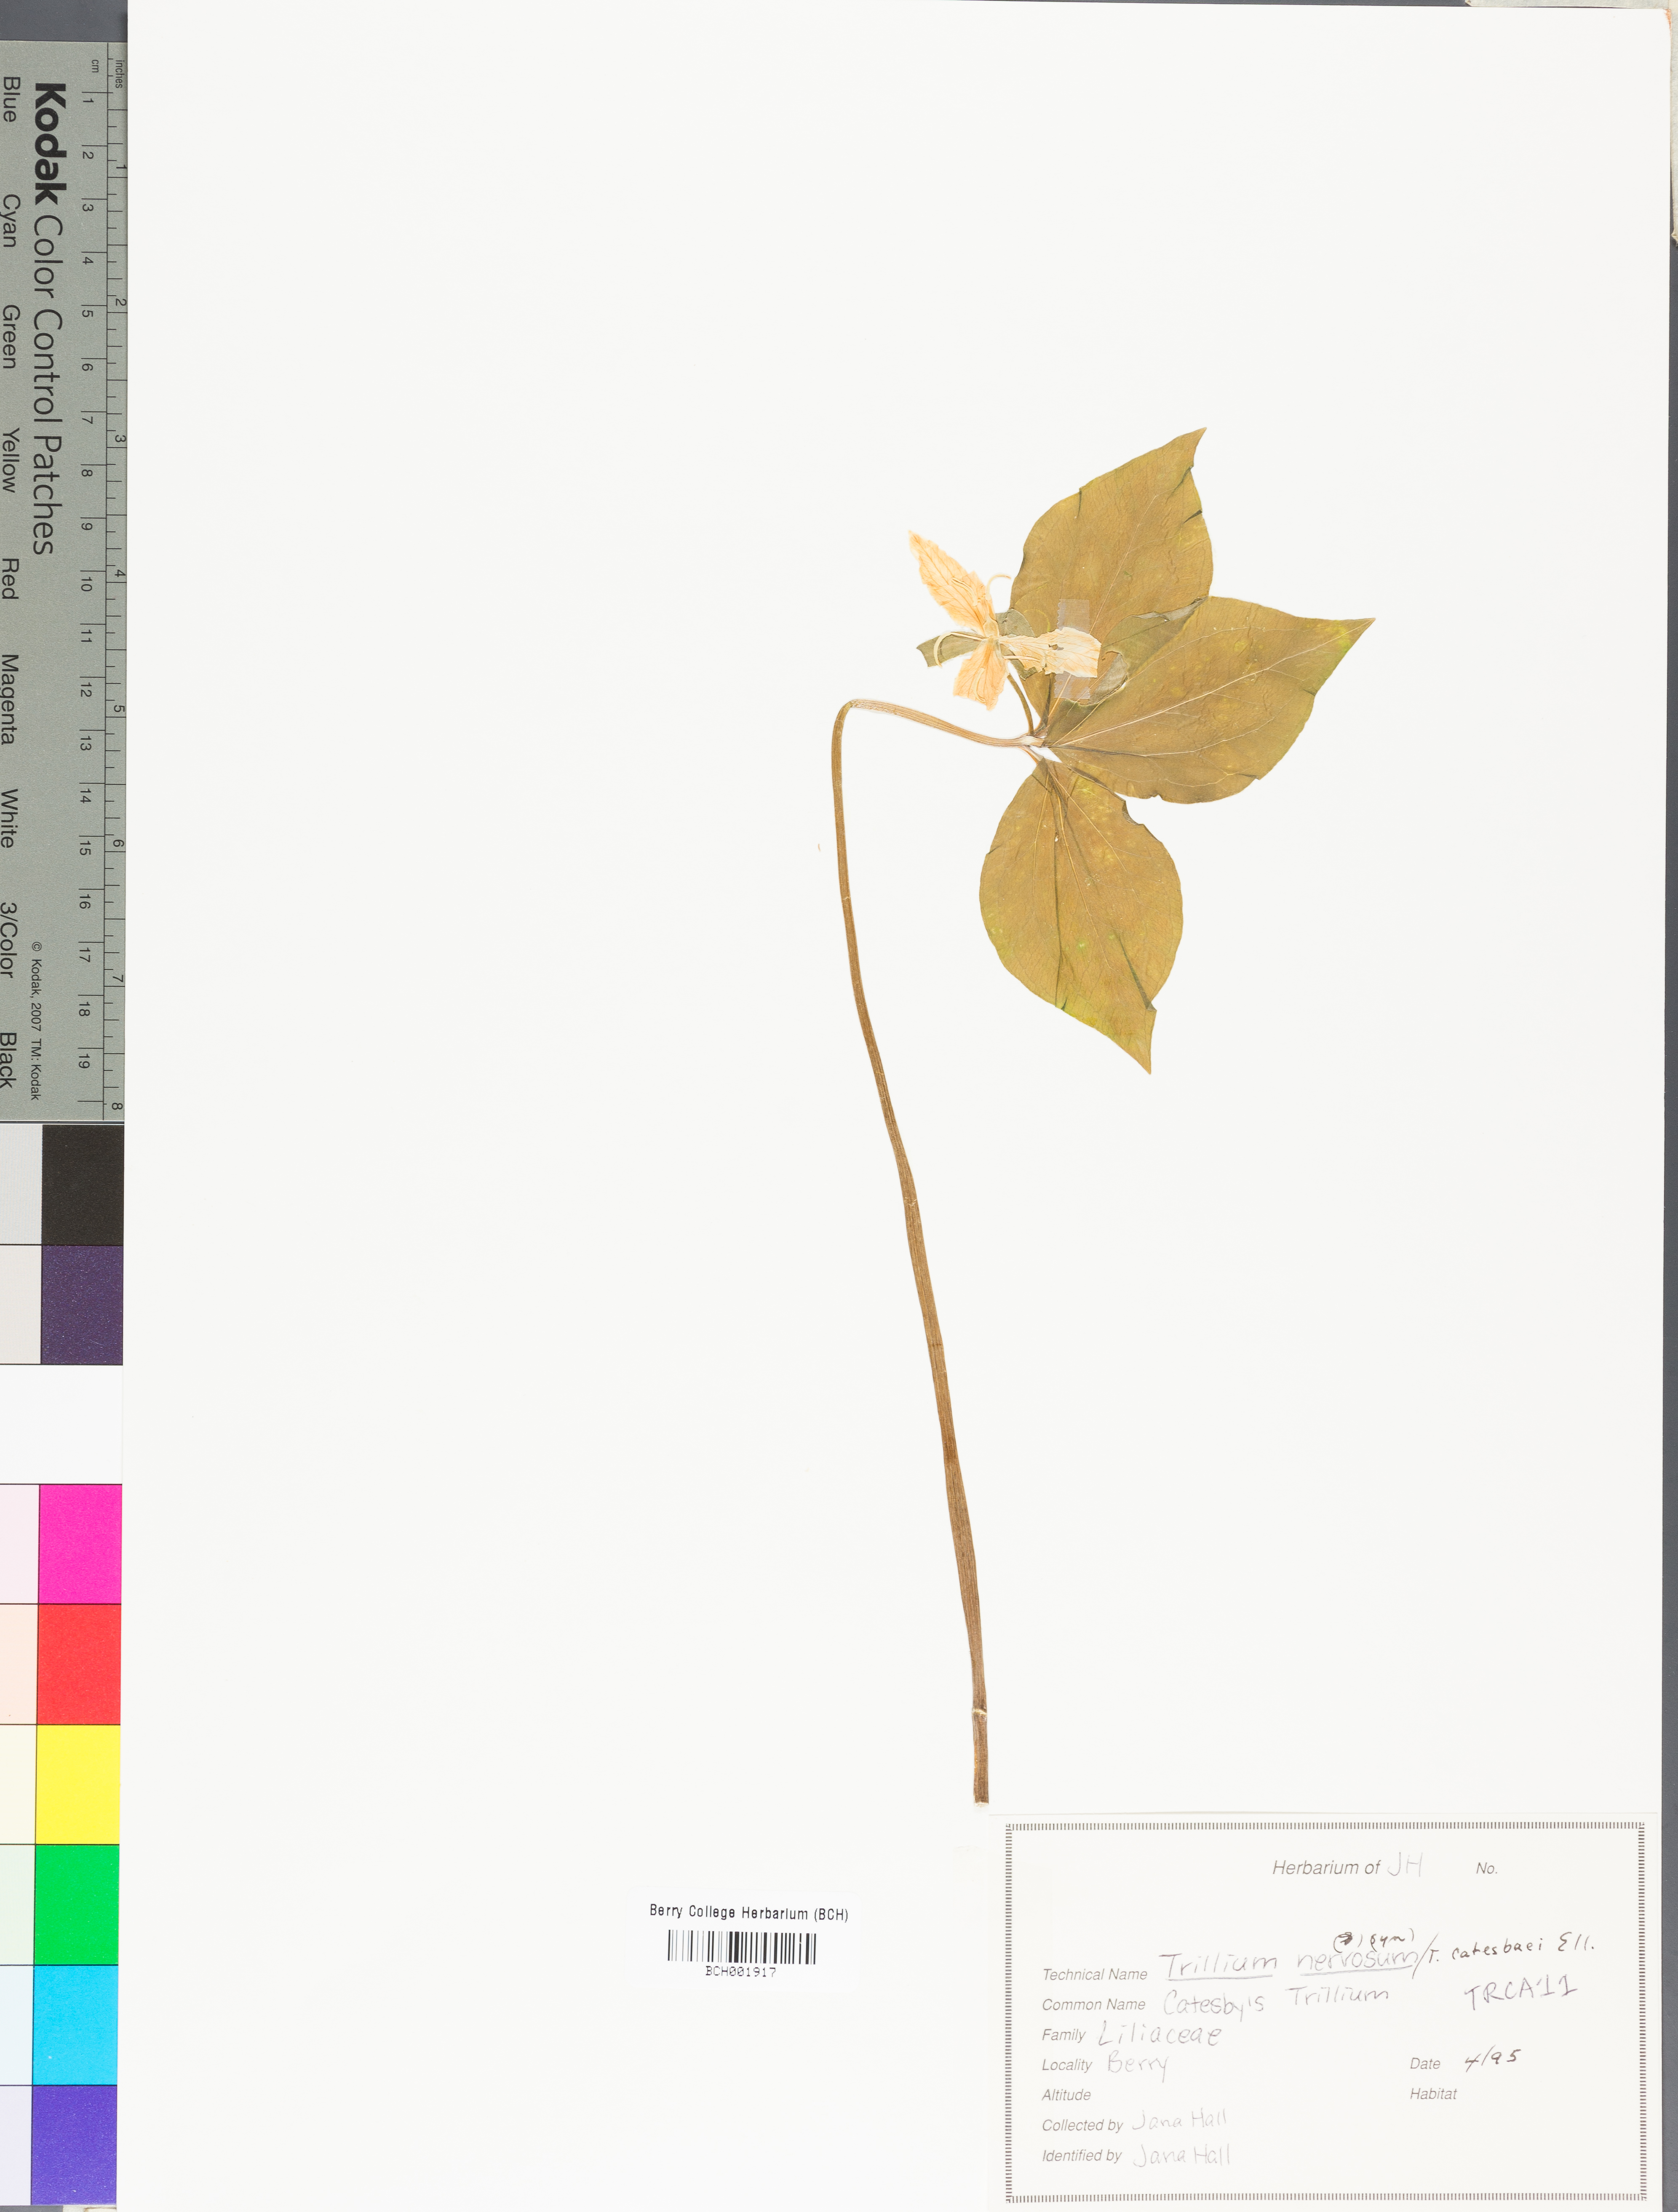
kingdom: Plantae
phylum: Tracheophyta
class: Liliopsida
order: Liliales
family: Melanthiaceae
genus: Trillium
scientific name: Trillium catesbaei
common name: Bashful trillium
